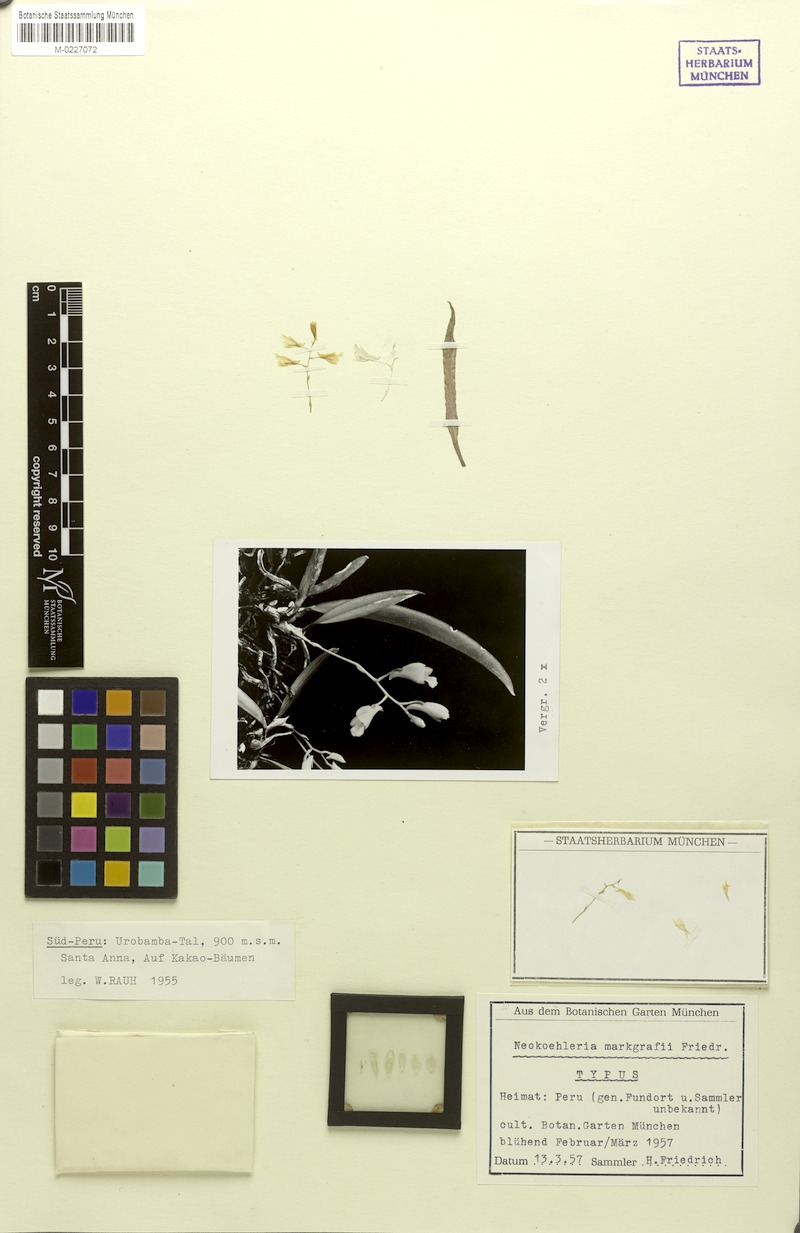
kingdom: Plantae
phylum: Tracheophyta
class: Liliopsida
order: Asparagales
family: Orchidaceae
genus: Comparettia
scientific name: Comparettia markgrafii
